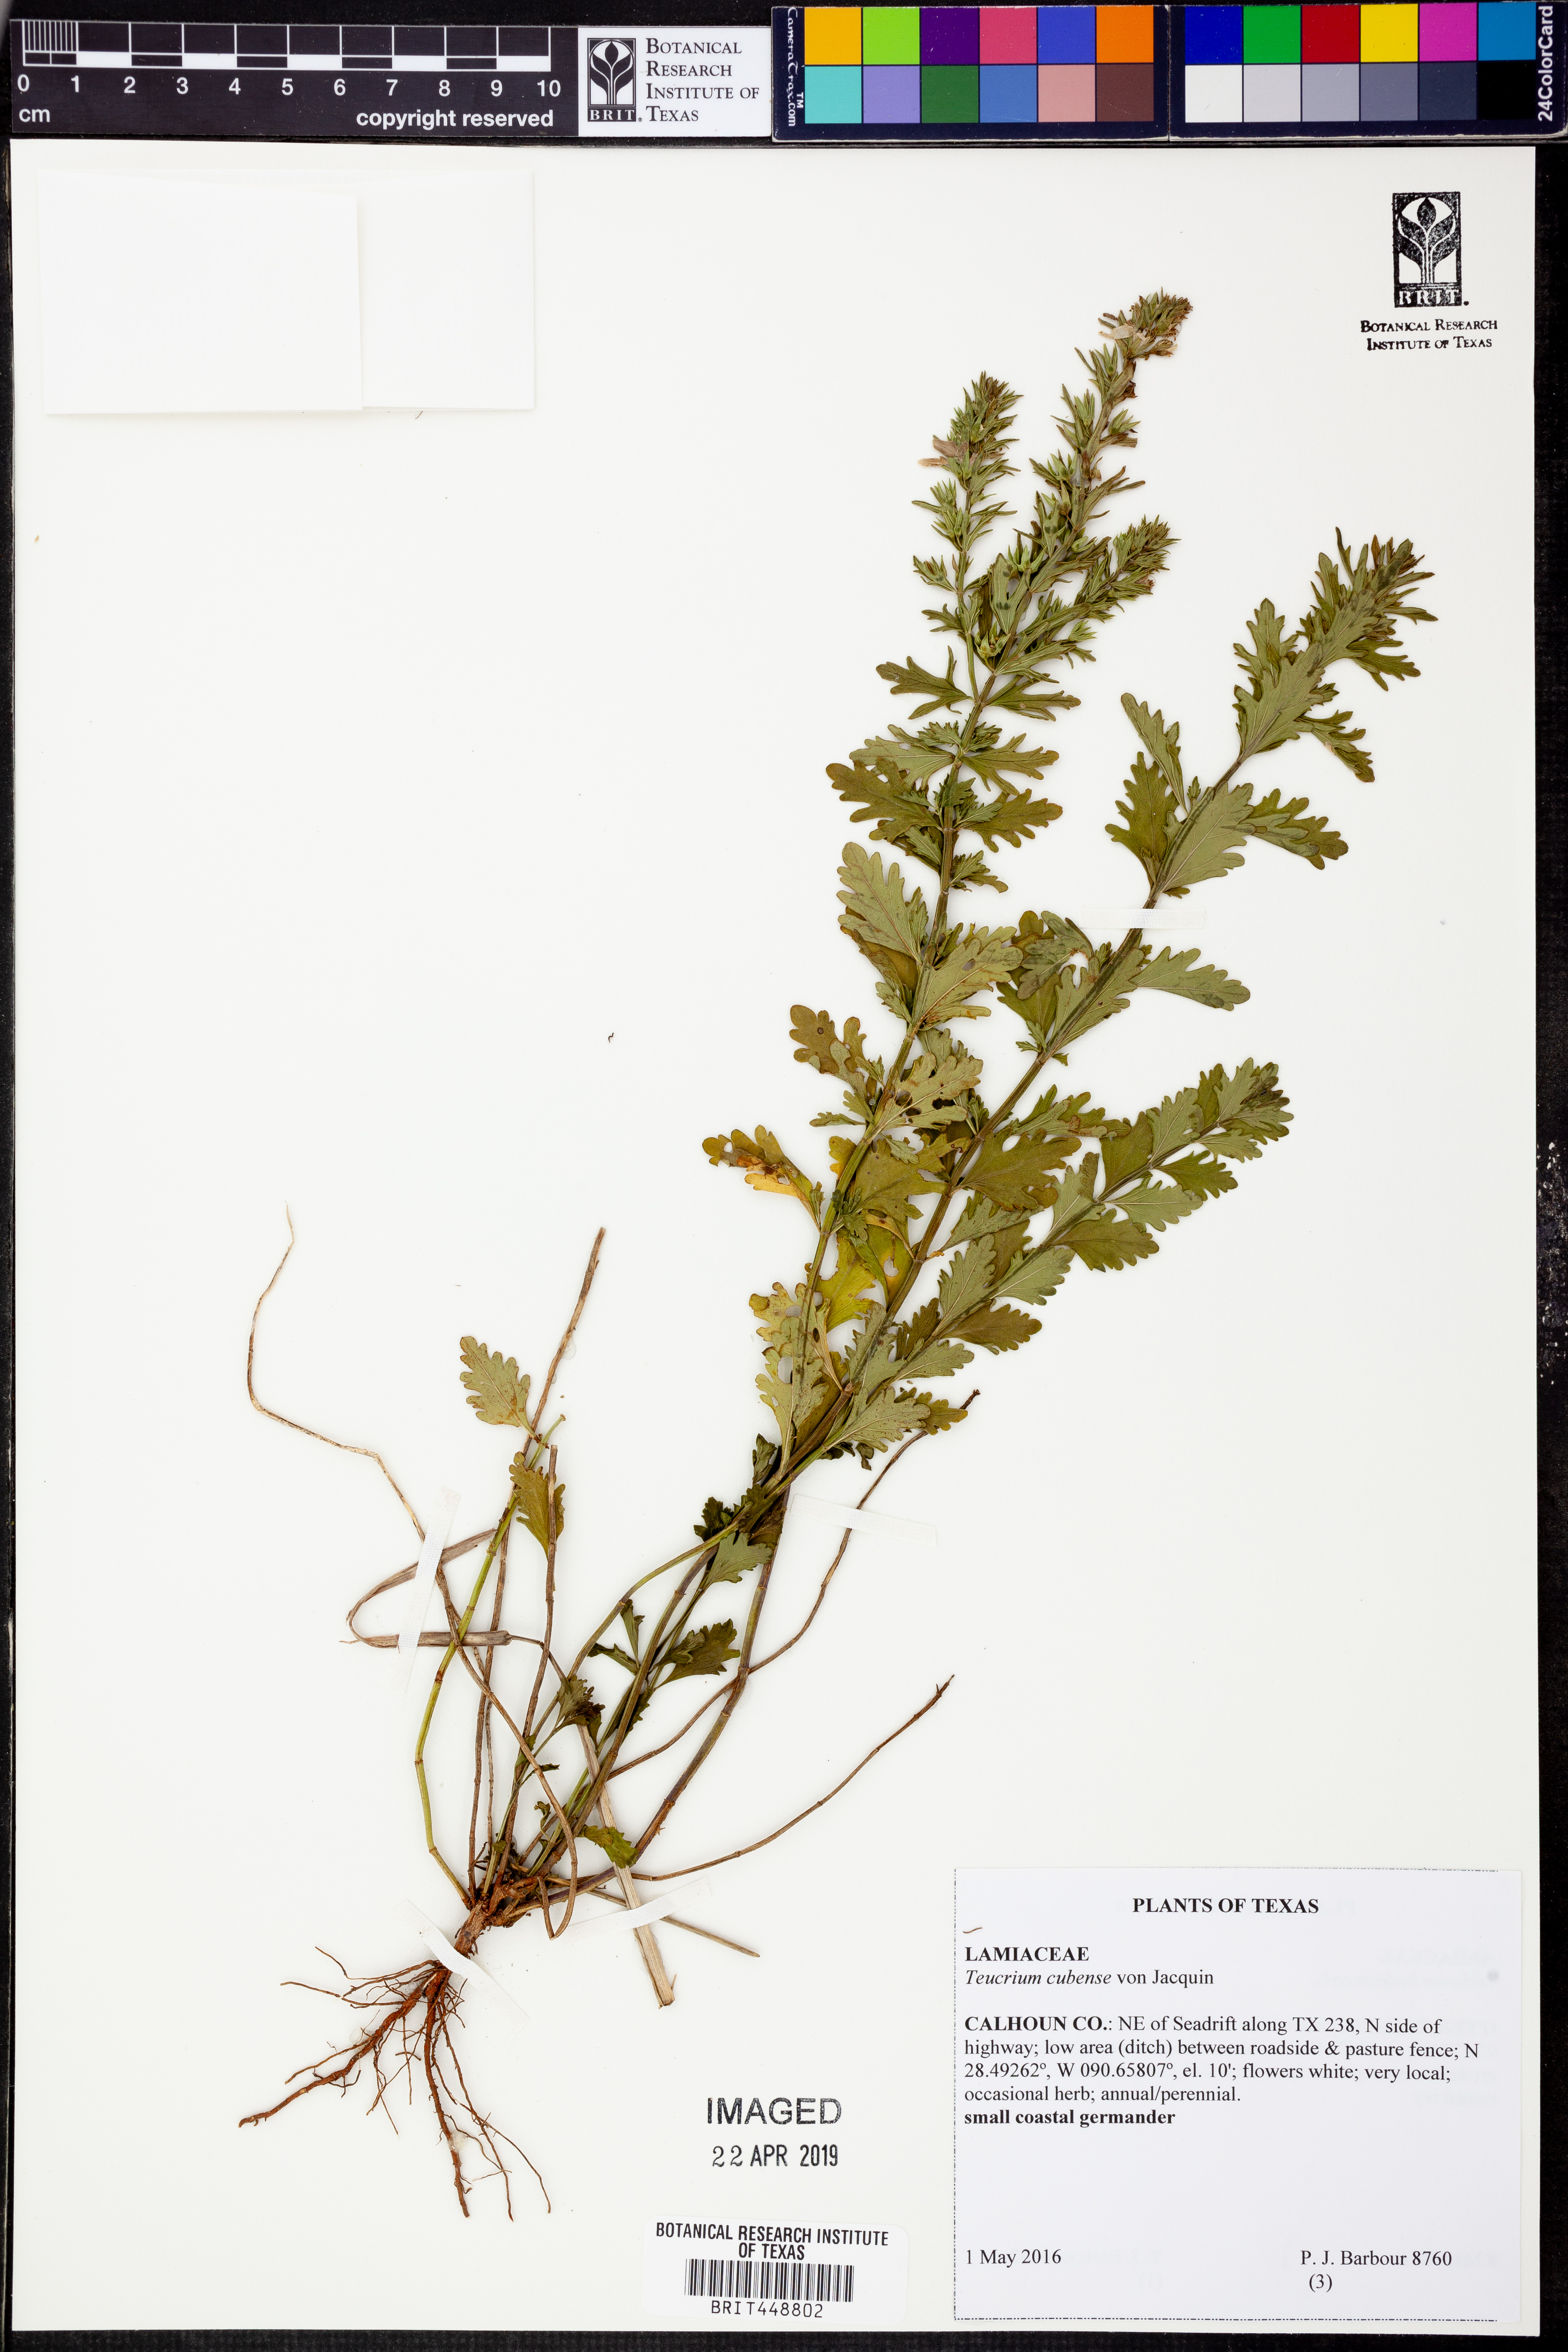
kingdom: Plantae
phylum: Tracheophyta
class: Magnoliopsida
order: Lamiales
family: Lamiaceae
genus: Teucrium
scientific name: Teucrium cubense
